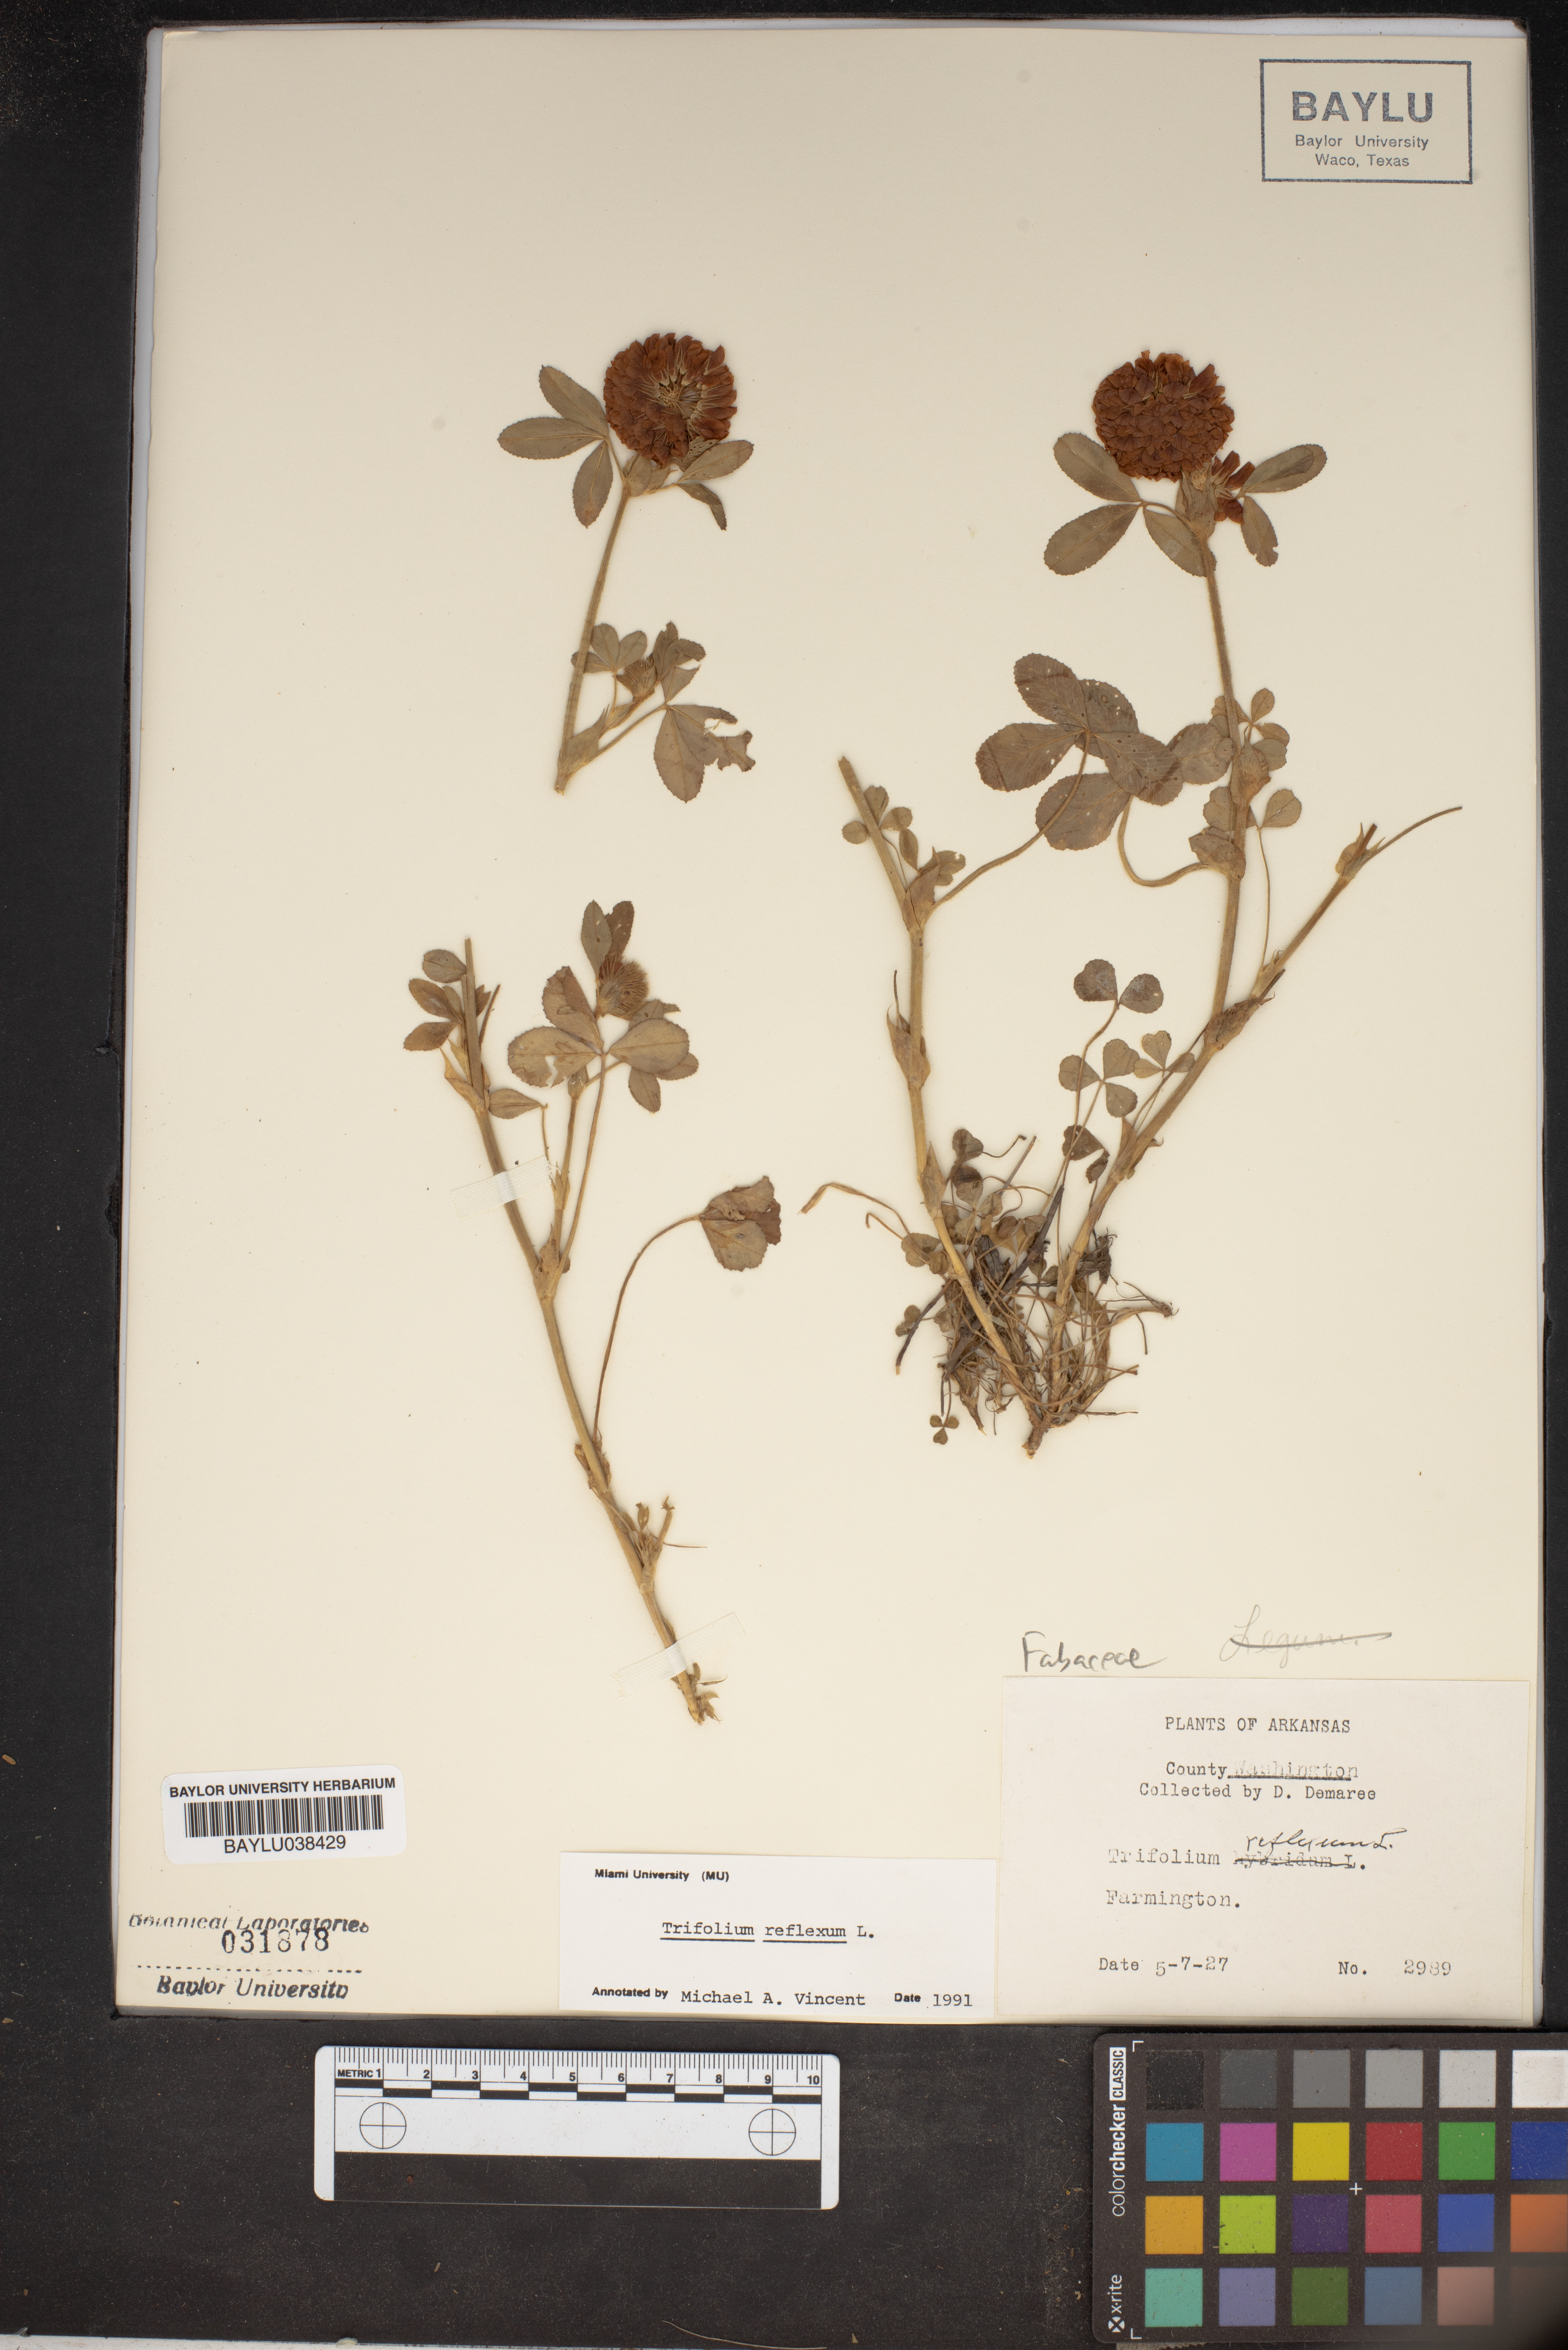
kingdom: Plantae
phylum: Tracheophyta
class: Magnoliopsida
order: Fabales
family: Fabaceae
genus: Trifolium
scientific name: Trifolium reflexum
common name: Buffalo clover
